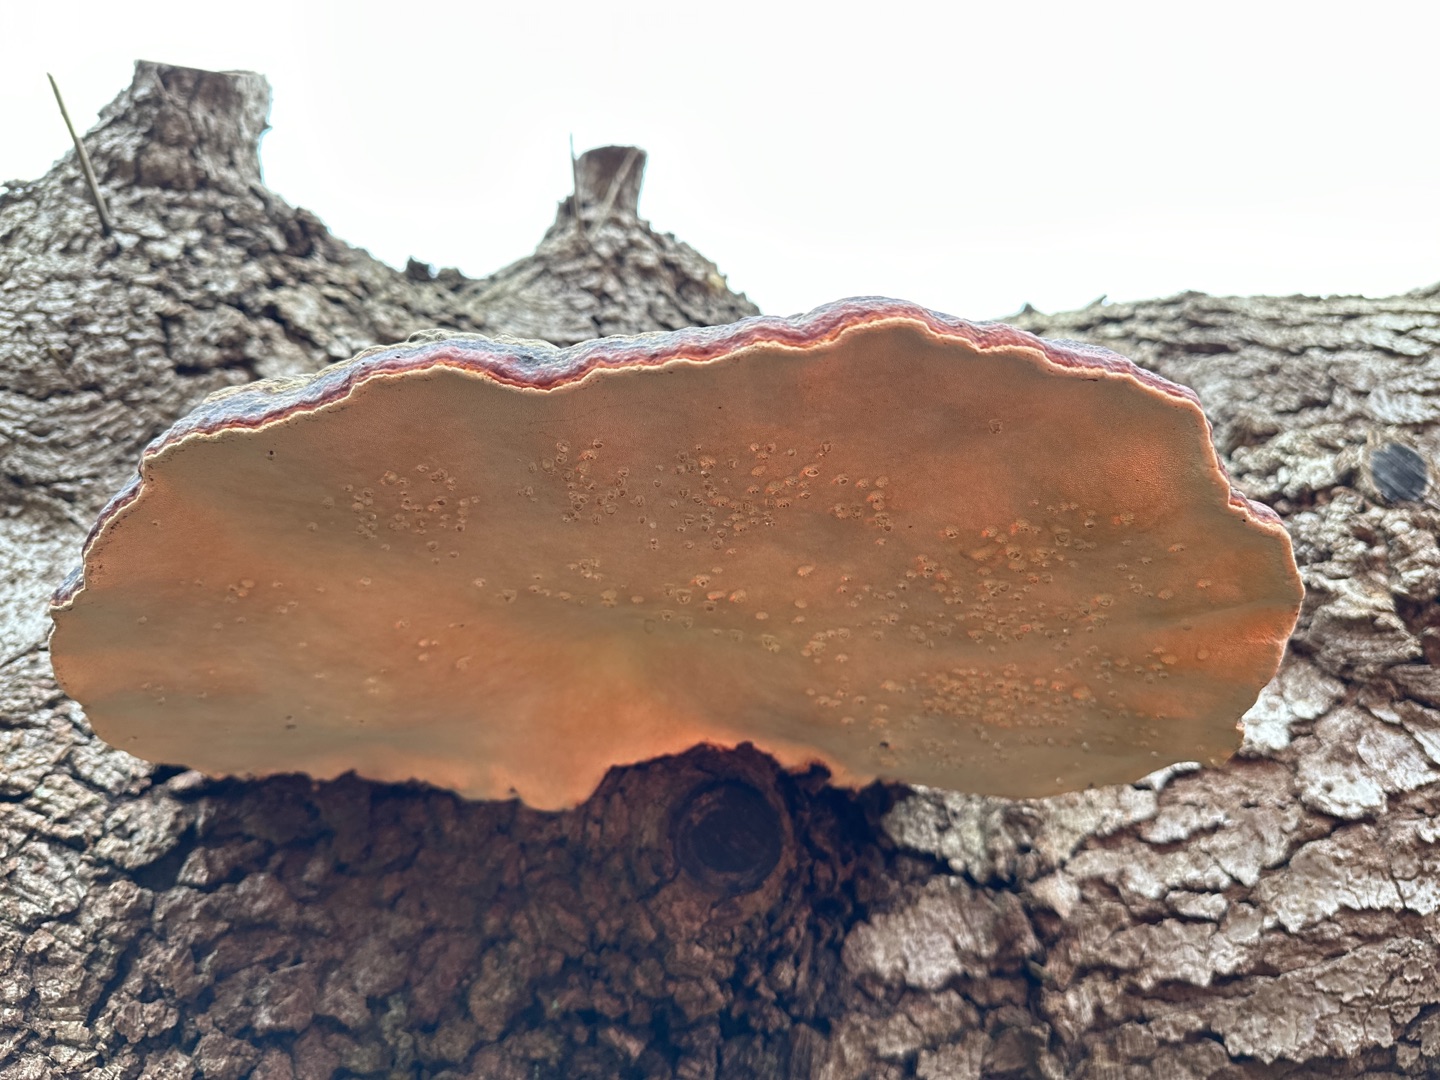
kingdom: Fungi
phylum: Basidiomycota
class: Agaricomycetes
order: Polyporales
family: Fomitopsidaceae
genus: Fomitopsis
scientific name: Fomitopsis pinicola
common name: Randbæltet hovporesvamp
